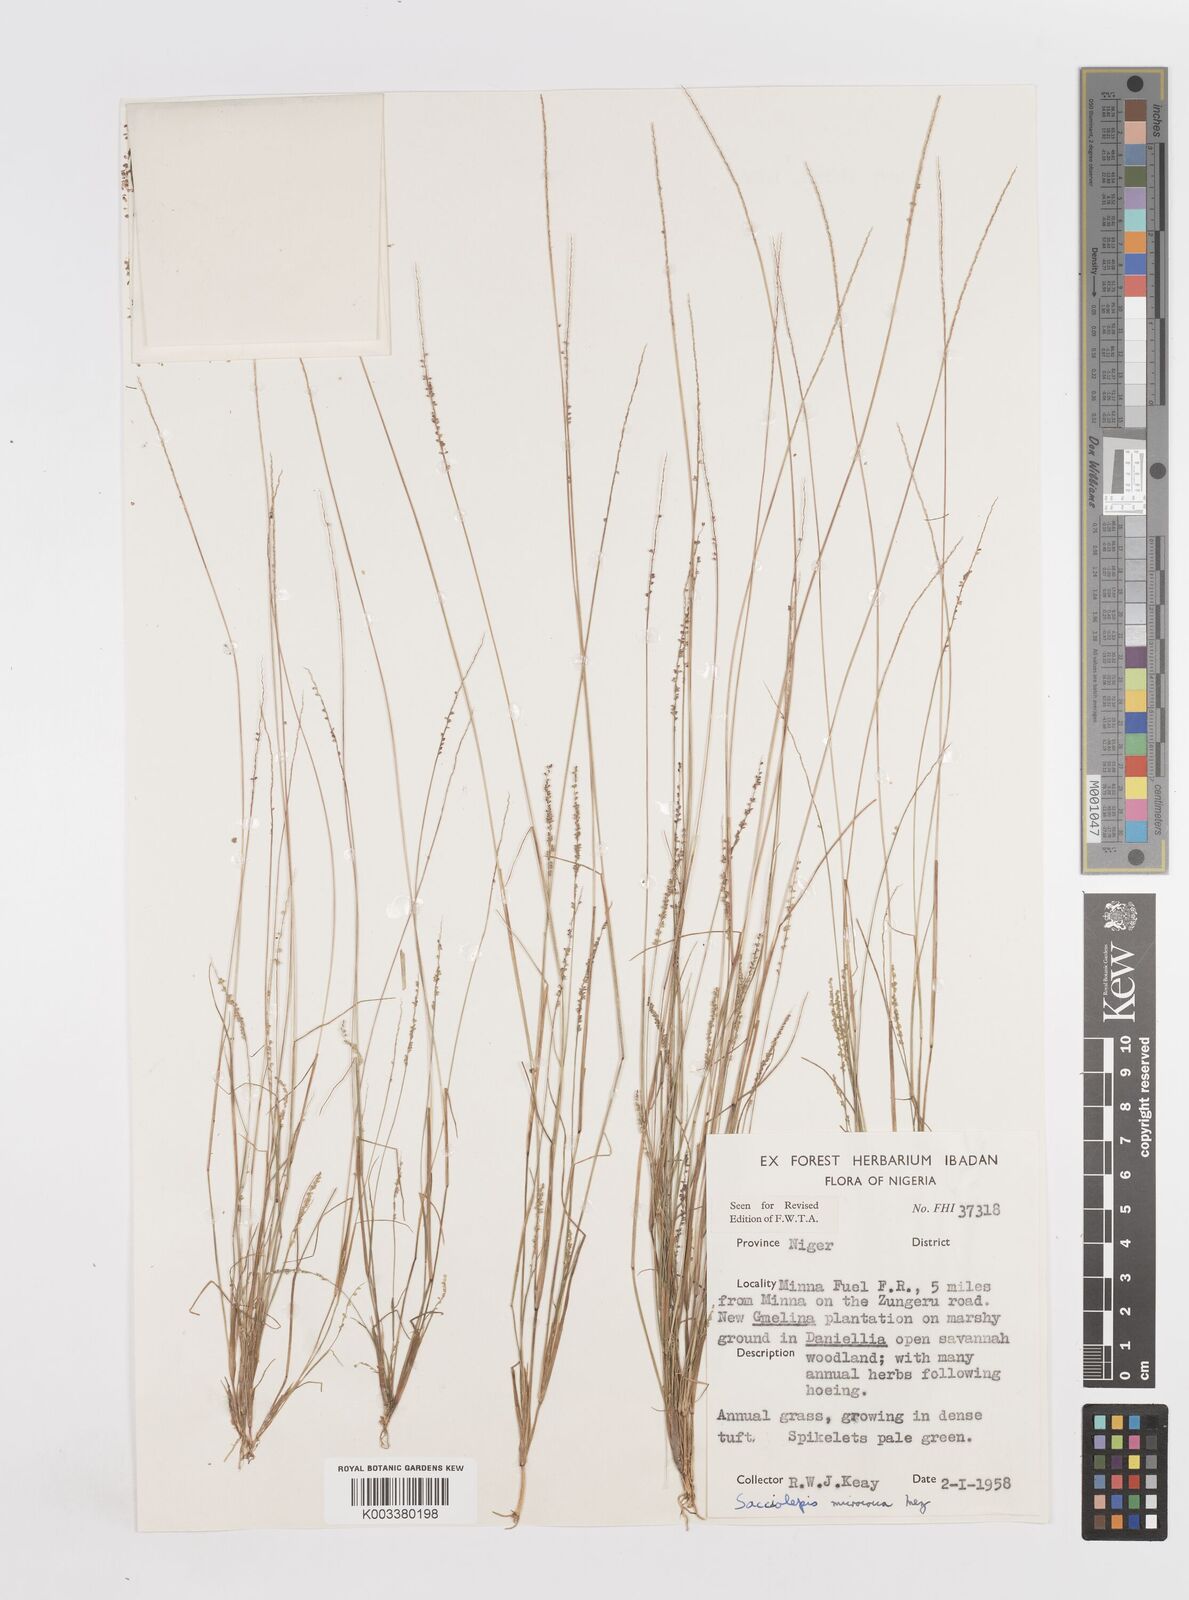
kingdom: Plantae
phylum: Tracheophyta
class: Liliopsida
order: Poales
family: Poaceae
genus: Sacciolepis
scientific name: Sacciolepis micrococca
